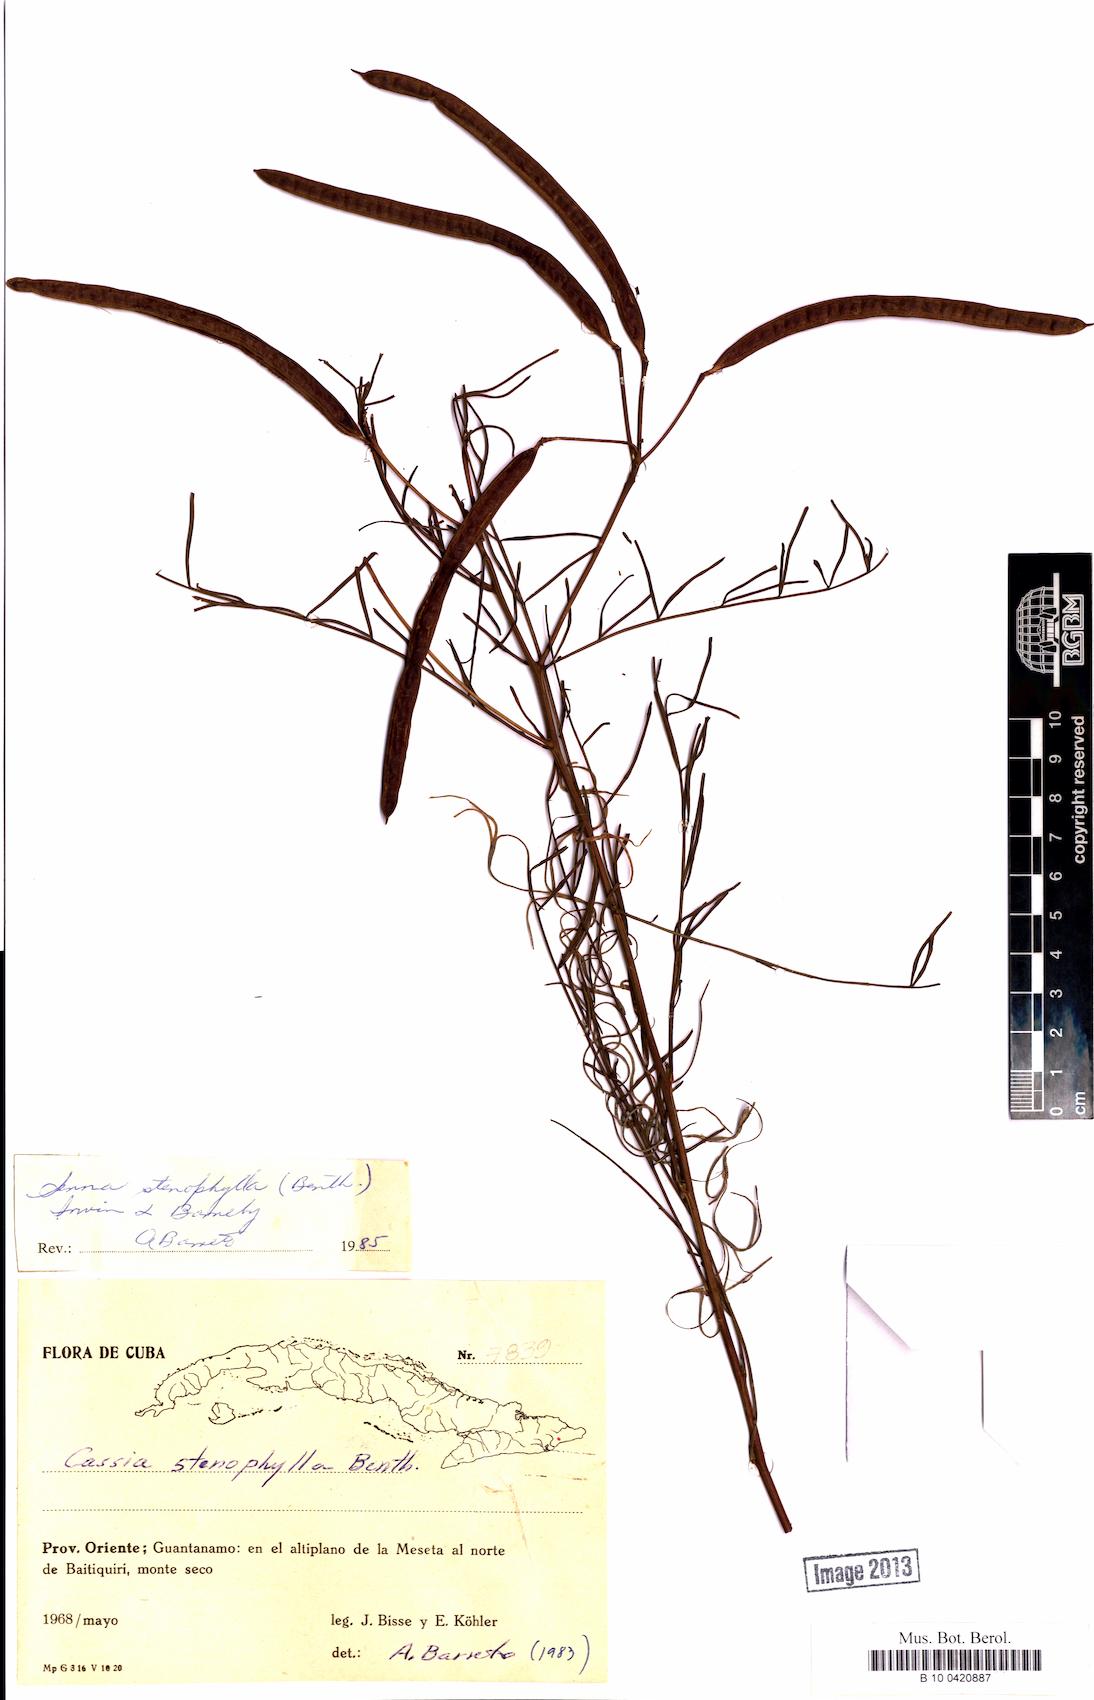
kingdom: Plantae
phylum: Tracheophyta
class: Magnoliopsida
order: Fabales
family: Fabaceae
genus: Senna
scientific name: Senna stenophylla
